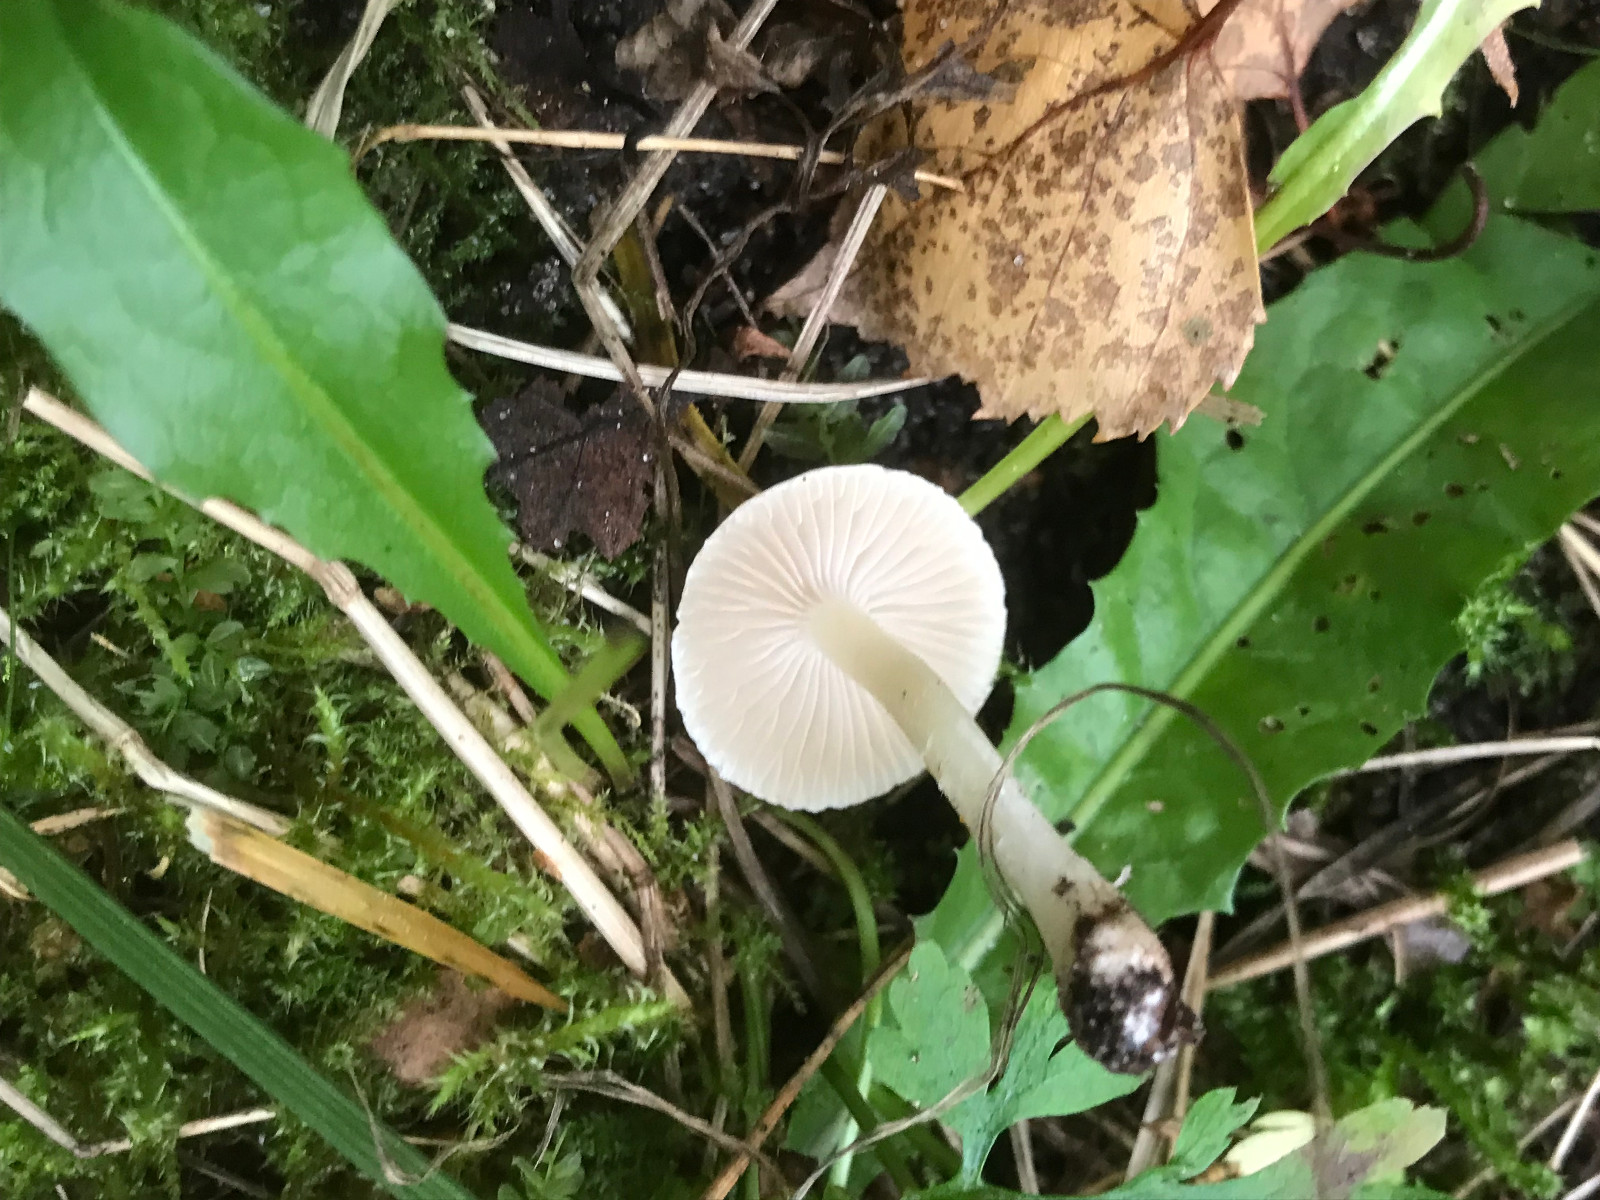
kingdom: Fungi
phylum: Basidiomycota
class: Agaricomycetes
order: Agaricales
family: Inocybaceae
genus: Inocybe
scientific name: Inocybe
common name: almindelig trævlhat
